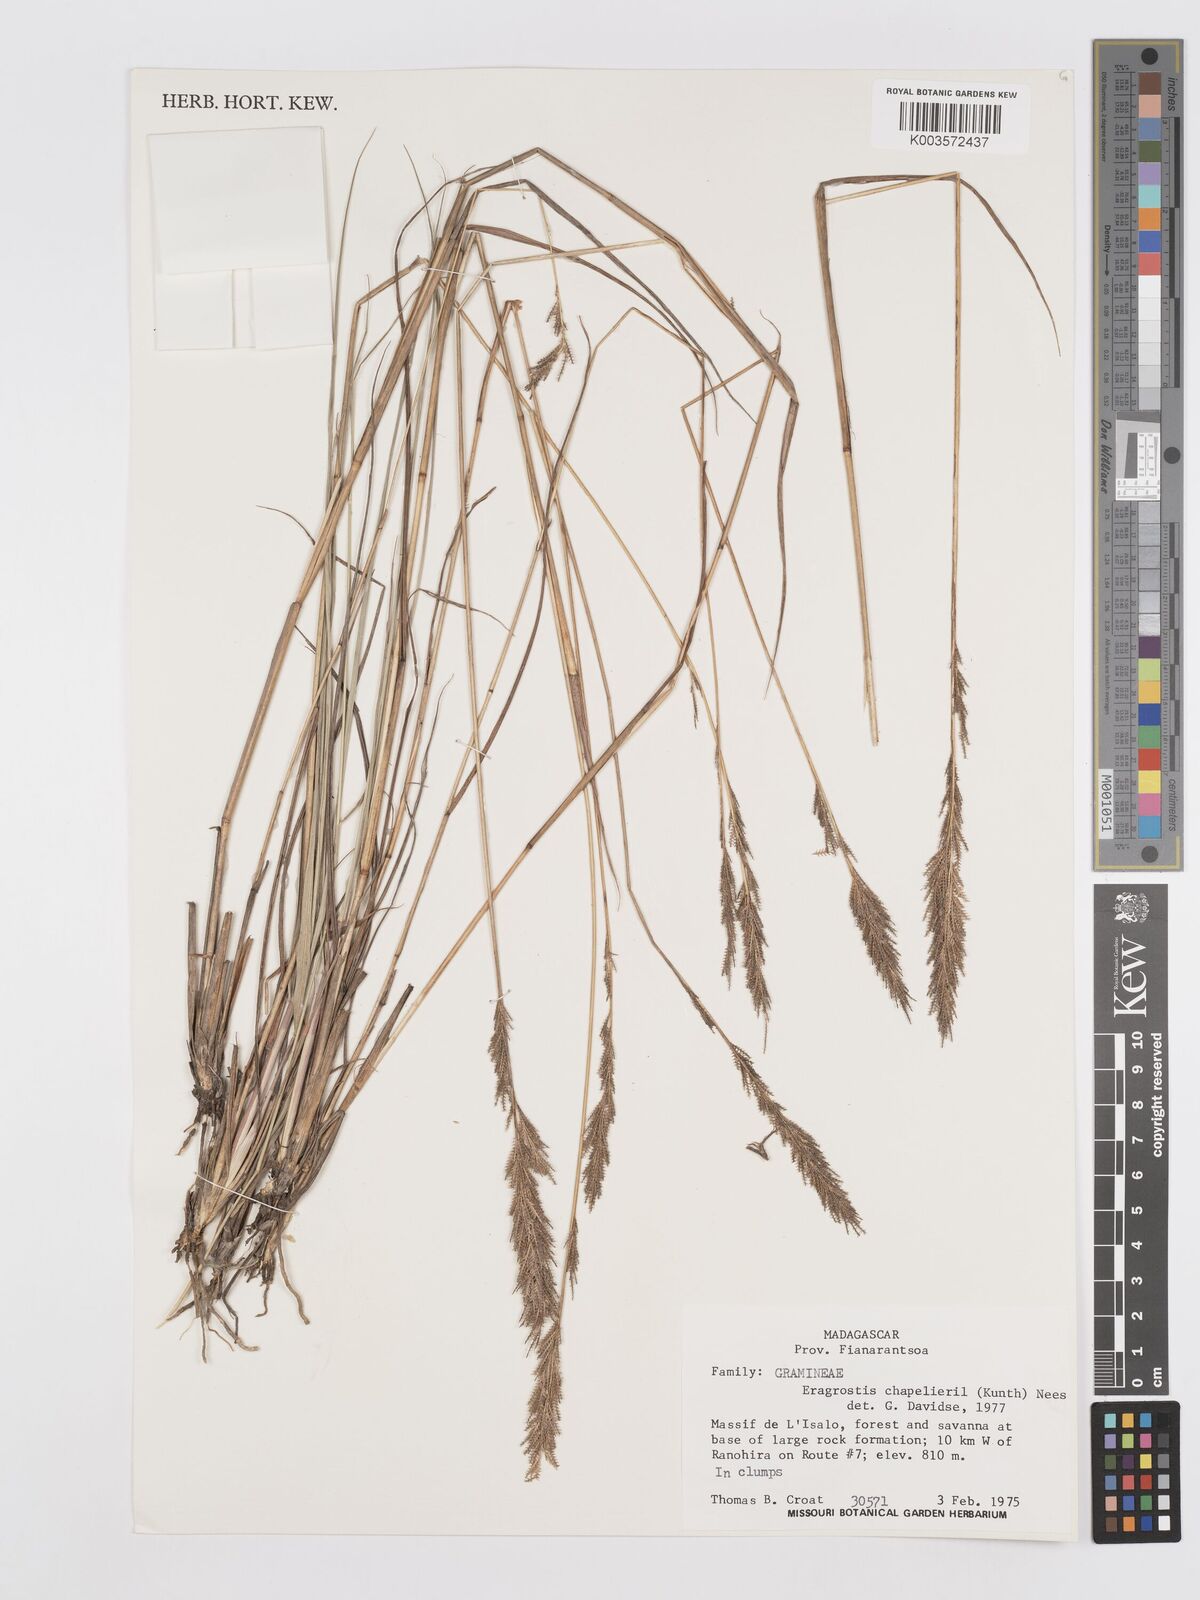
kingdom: Plantae
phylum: Tracheophyta
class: Liliopsida
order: Poales
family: Poaceae
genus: Eragrostis
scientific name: Eragrostis chapelieri
